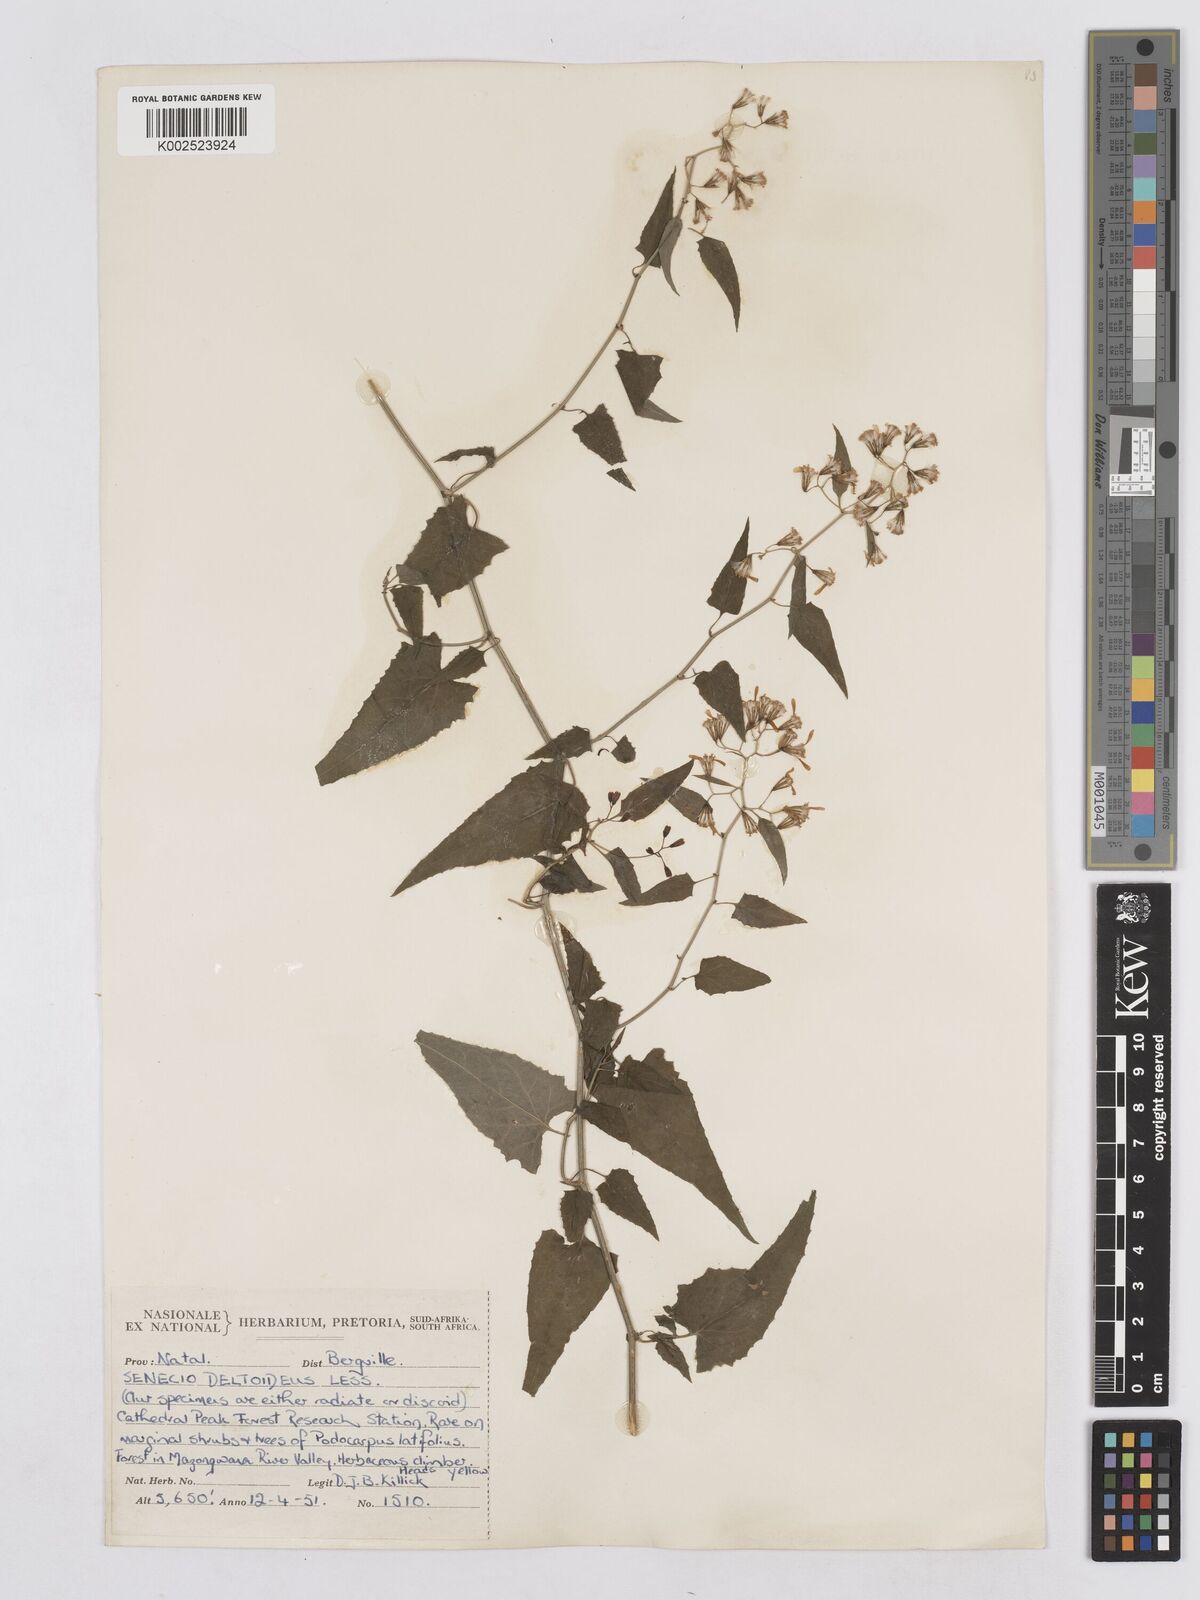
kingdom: Plantae
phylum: Tracheophyta
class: Magnoliopsida
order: Asterales
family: Asteraceae
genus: Senecio
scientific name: Senecio deltoideus
